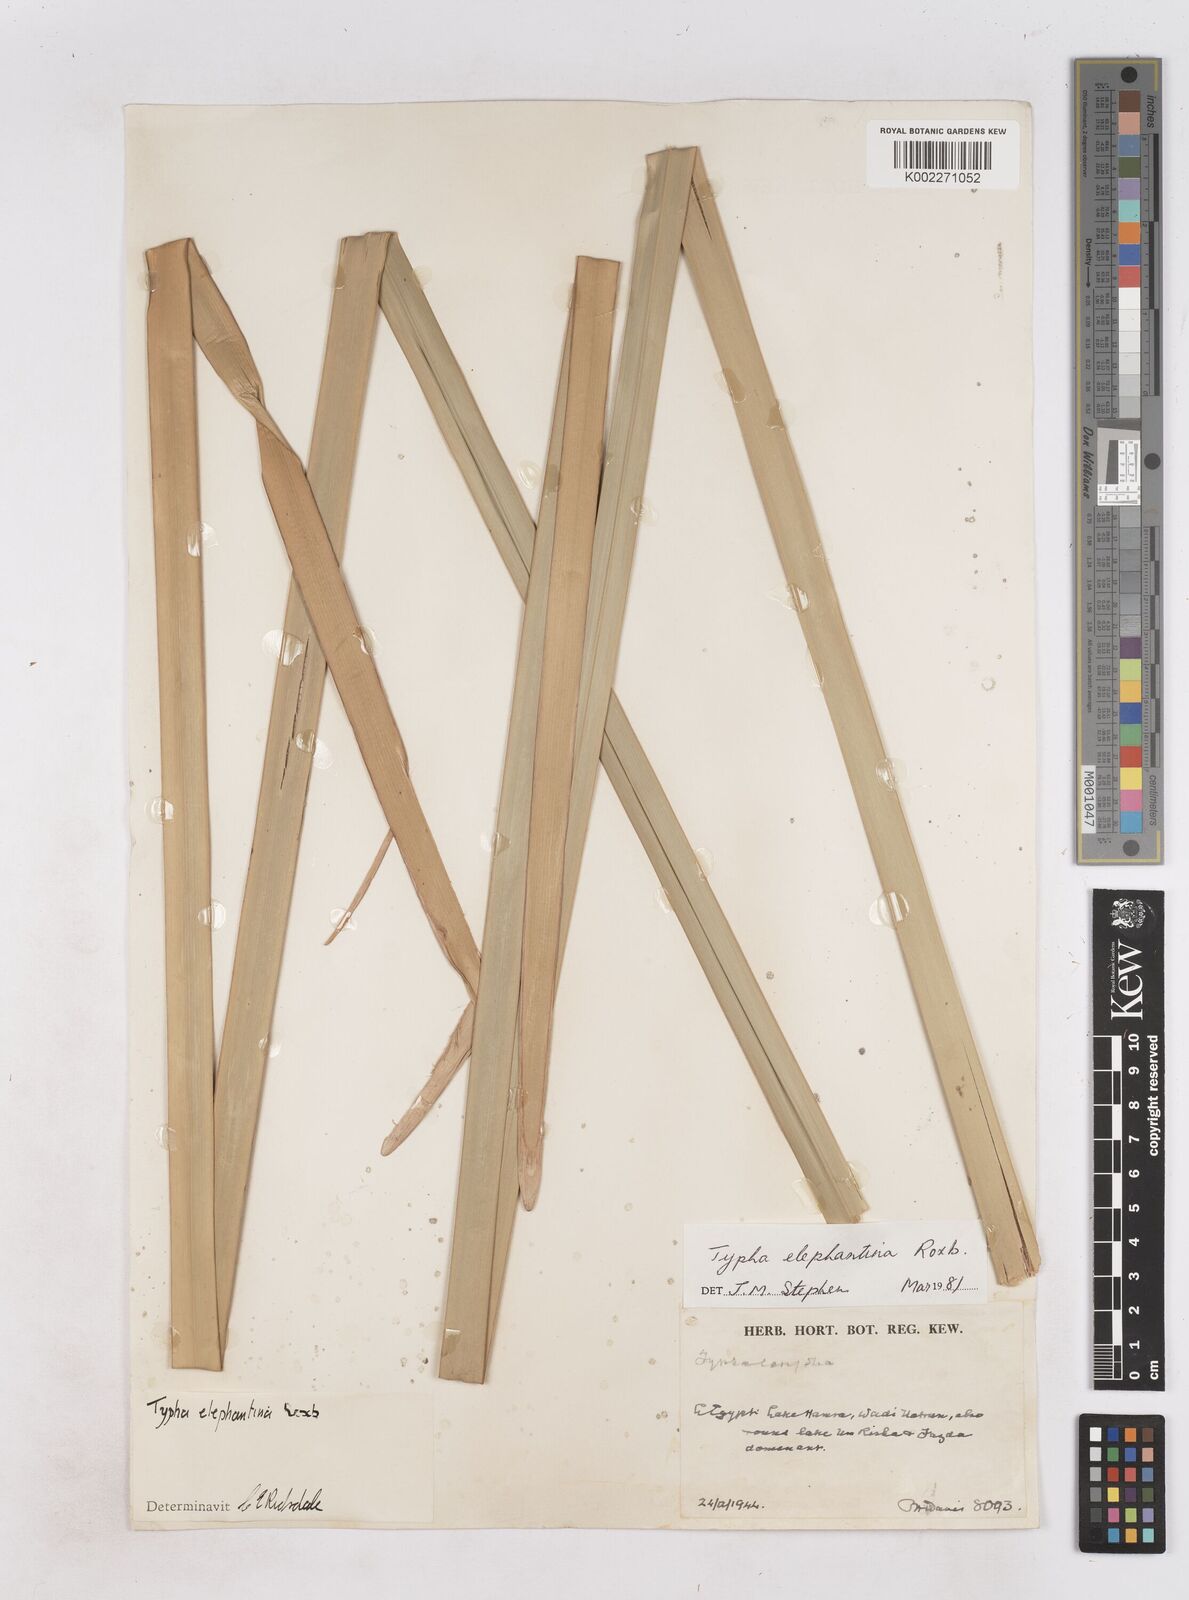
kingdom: Plantae
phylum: Tracheophyta
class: Liliopsida
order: Poales
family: Typhaceae
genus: Typha
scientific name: Typha elephantina
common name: Indian reed-grass
